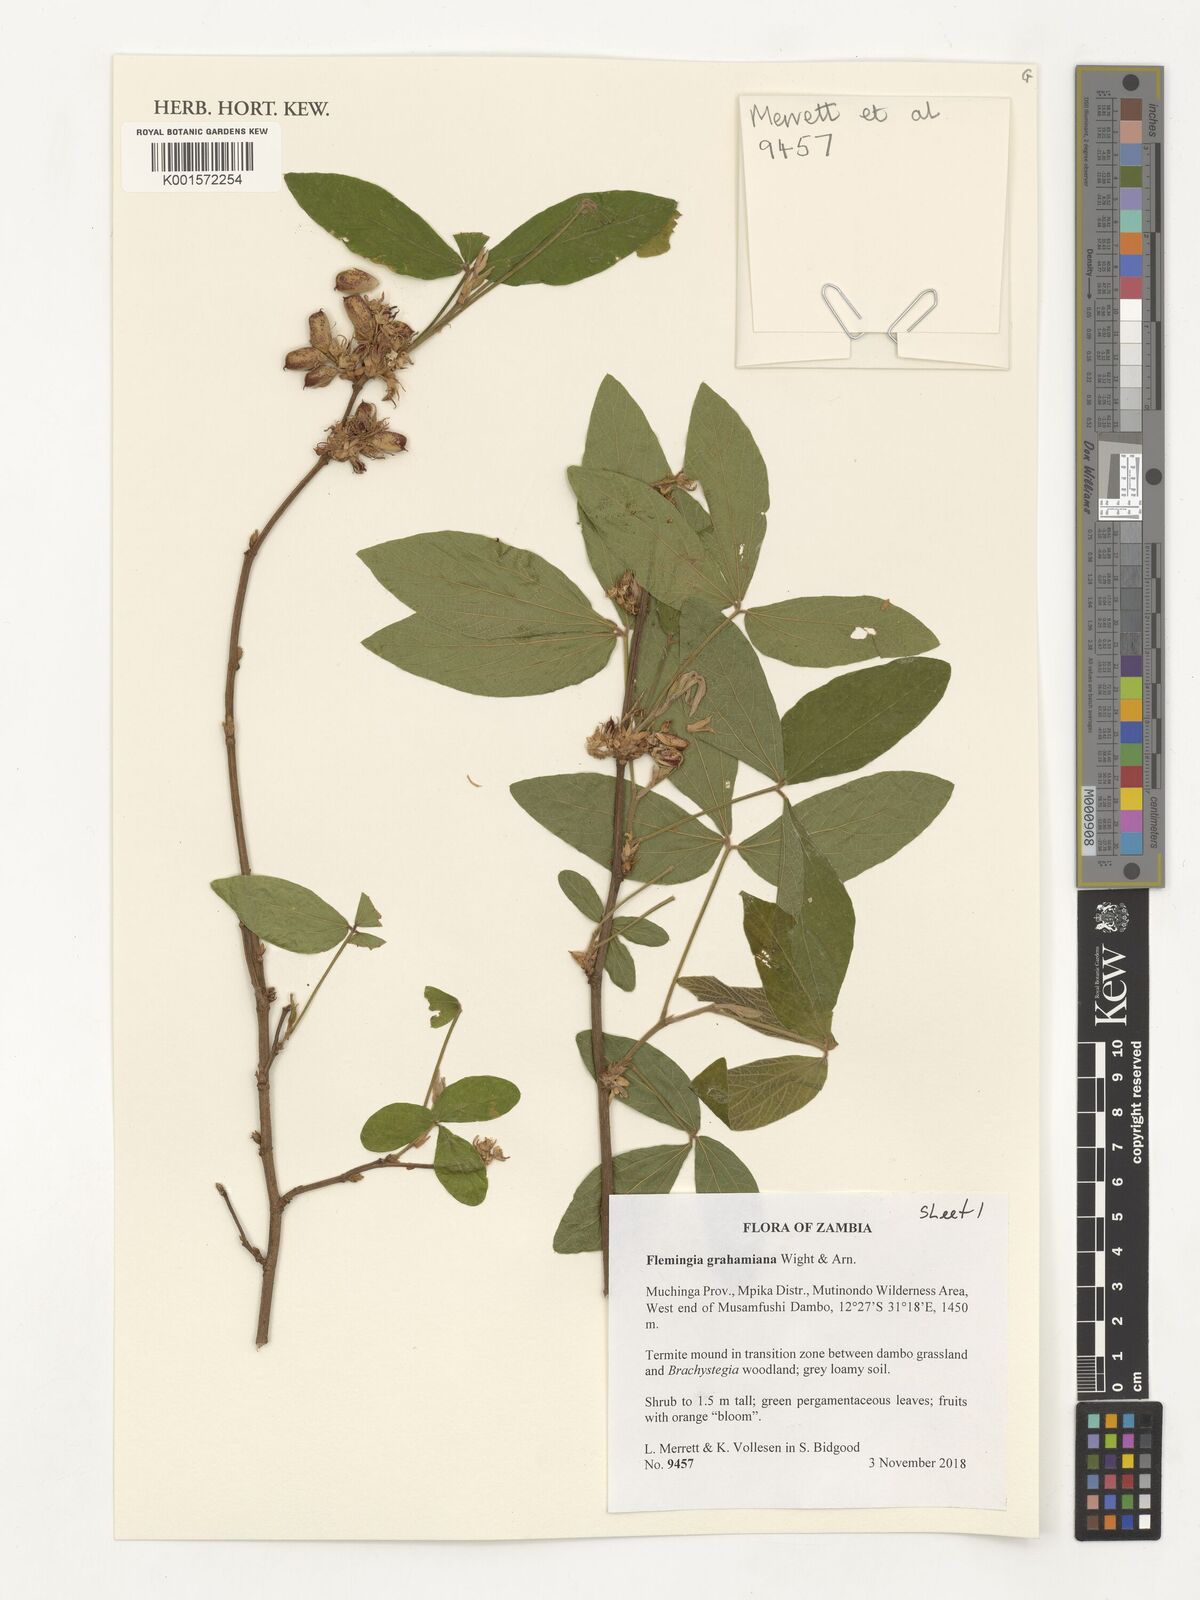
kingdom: Plantae
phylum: Tracheophyta
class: Magnoliopsida
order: Fabales
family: Fabaceae
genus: Flemingia
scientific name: Flemingia grahamiana
